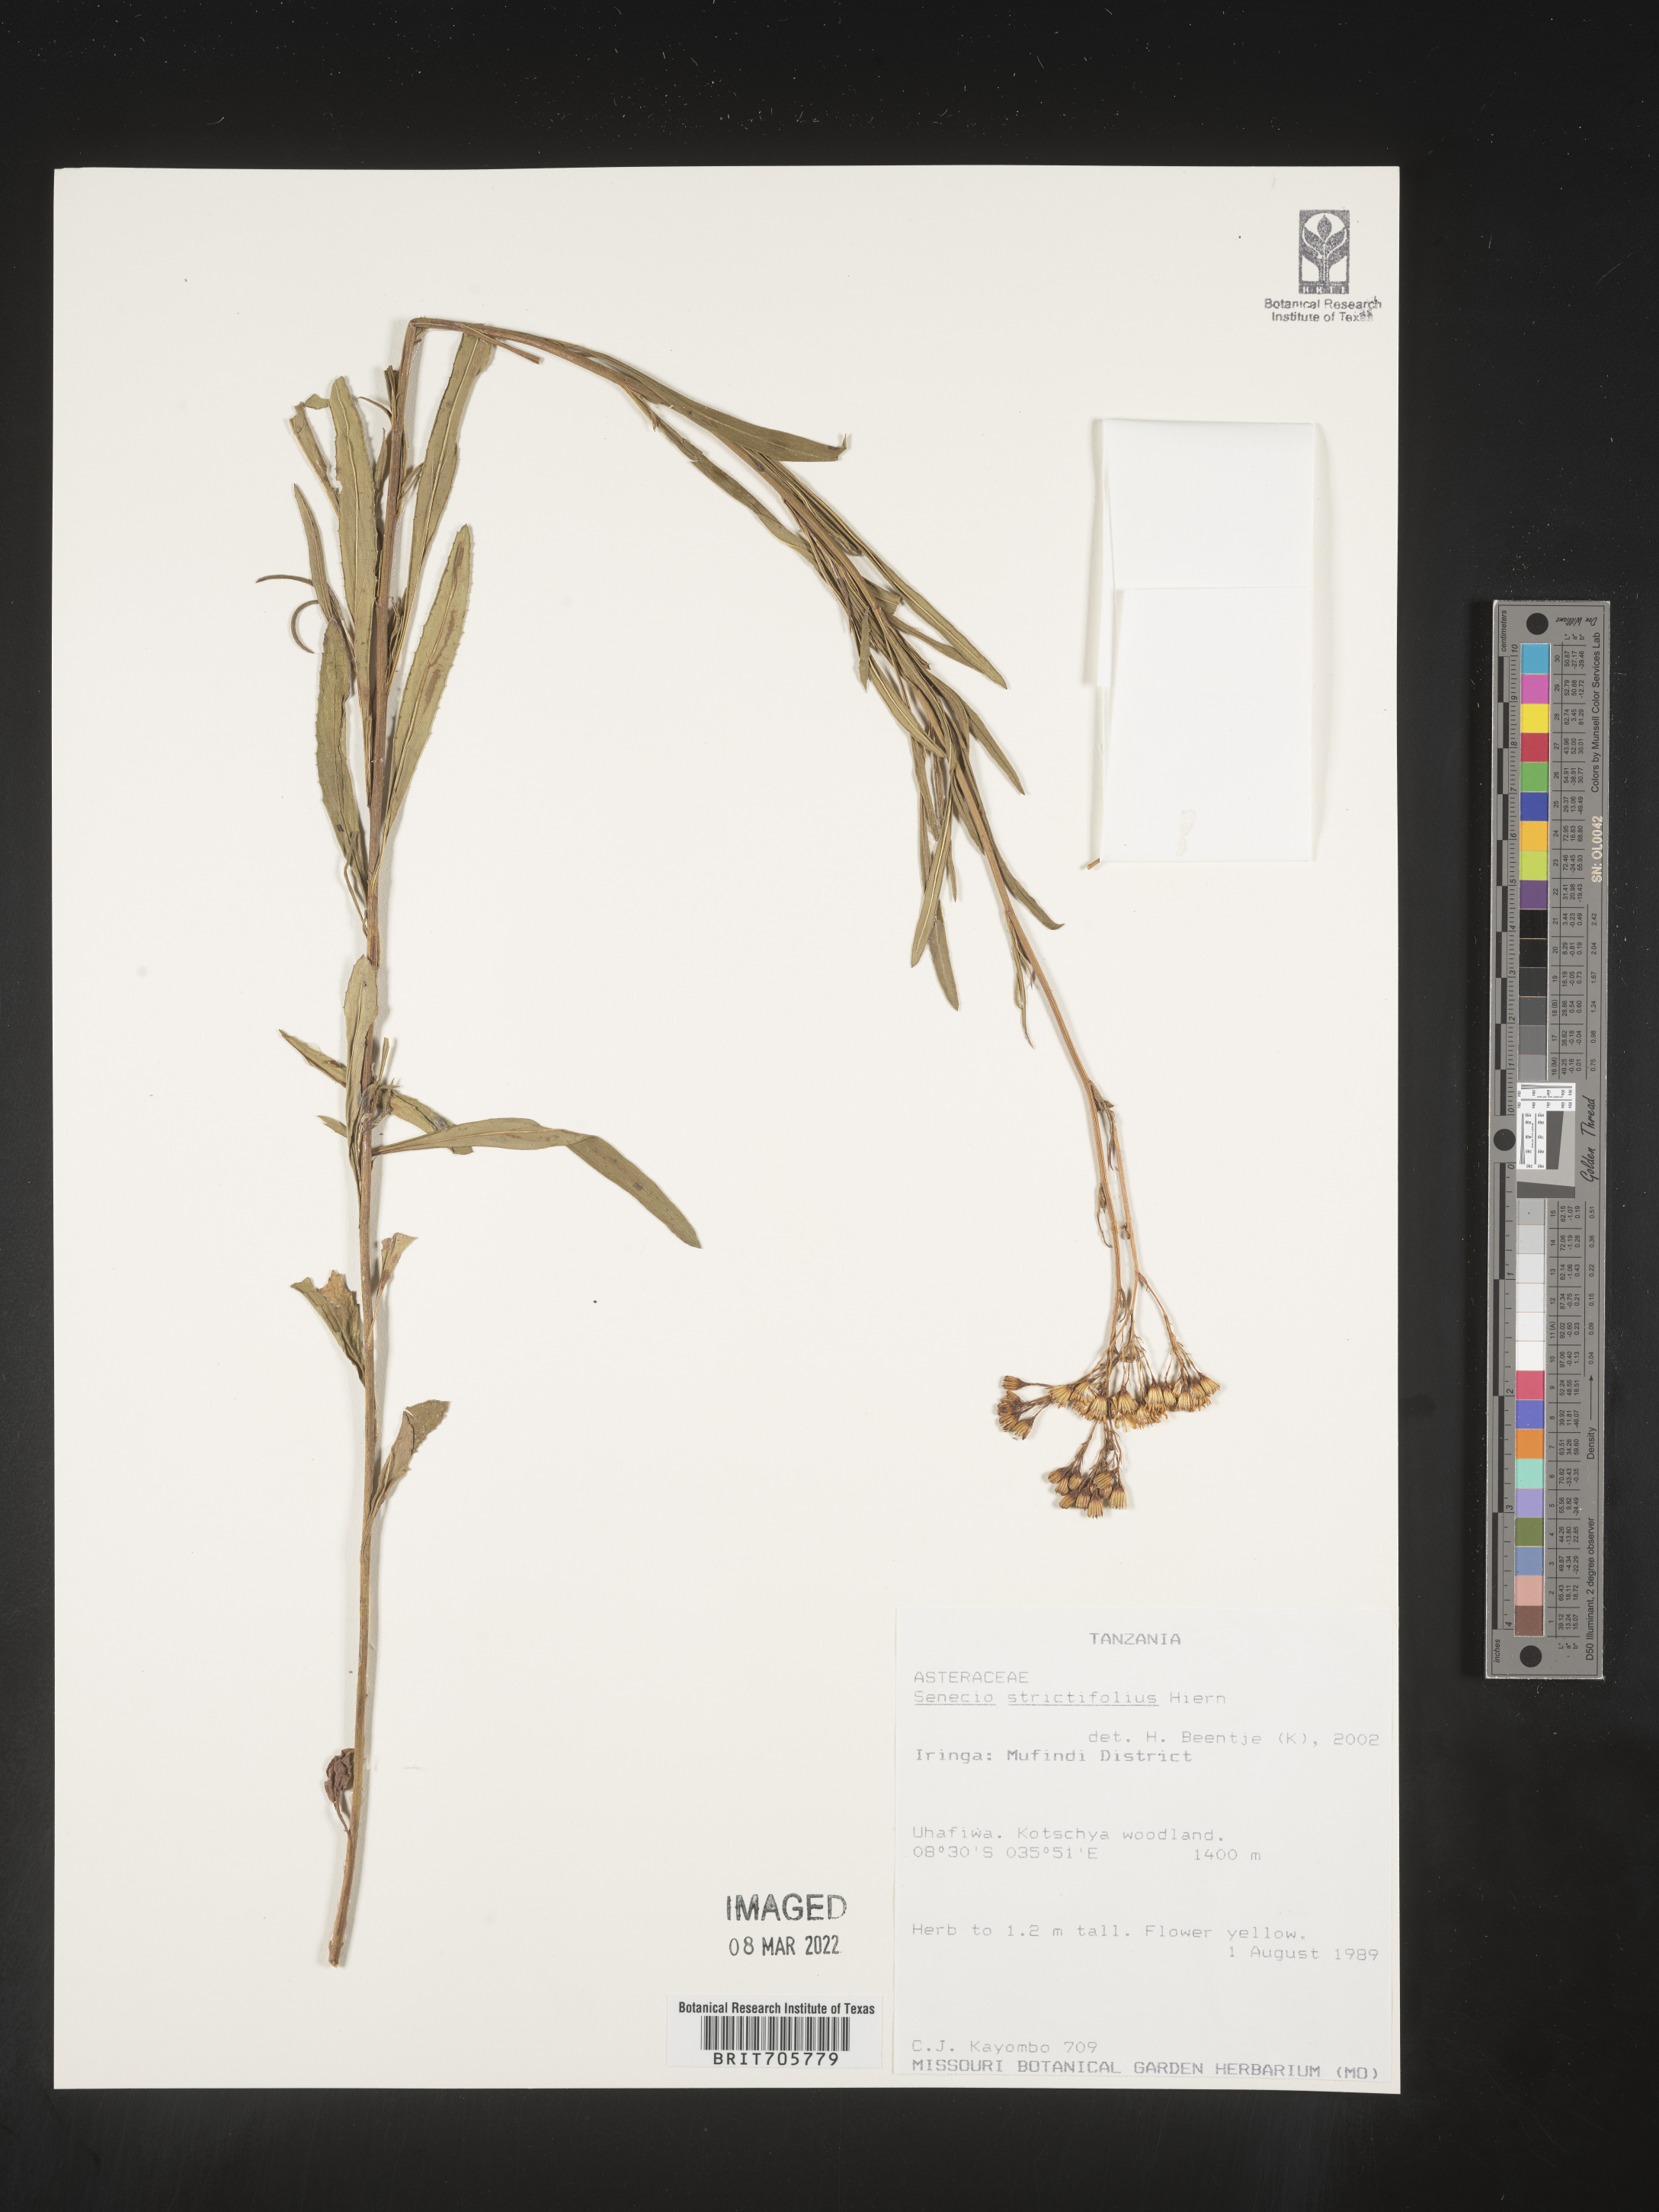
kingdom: Plantae
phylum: Tracheophyta
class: Magnoliopsida
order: Asterales
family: Asteraceae
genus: Senecio
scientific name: Senecio
